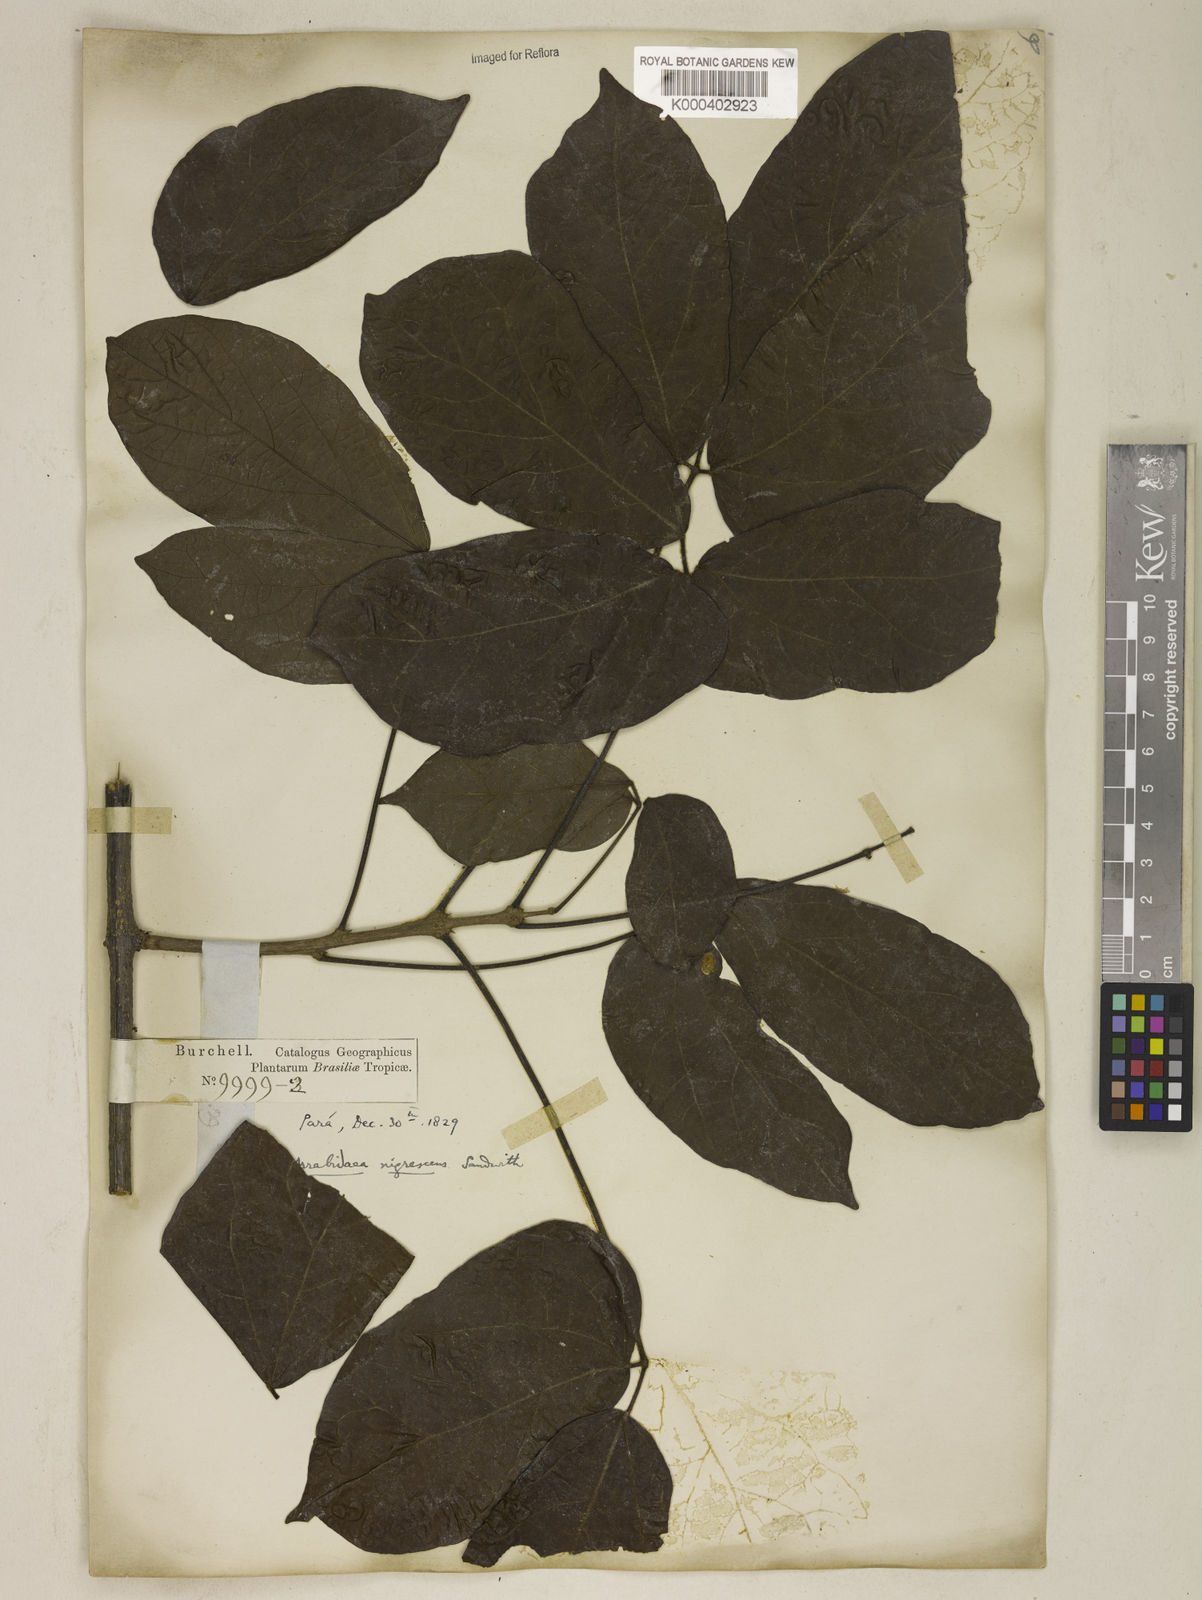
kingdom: Plantae
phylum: Tracheophyta
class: Magnoliopsida
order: Lamiales
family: Bignoniaceae
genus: Fridericia
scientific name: Fridericia nigrescens
